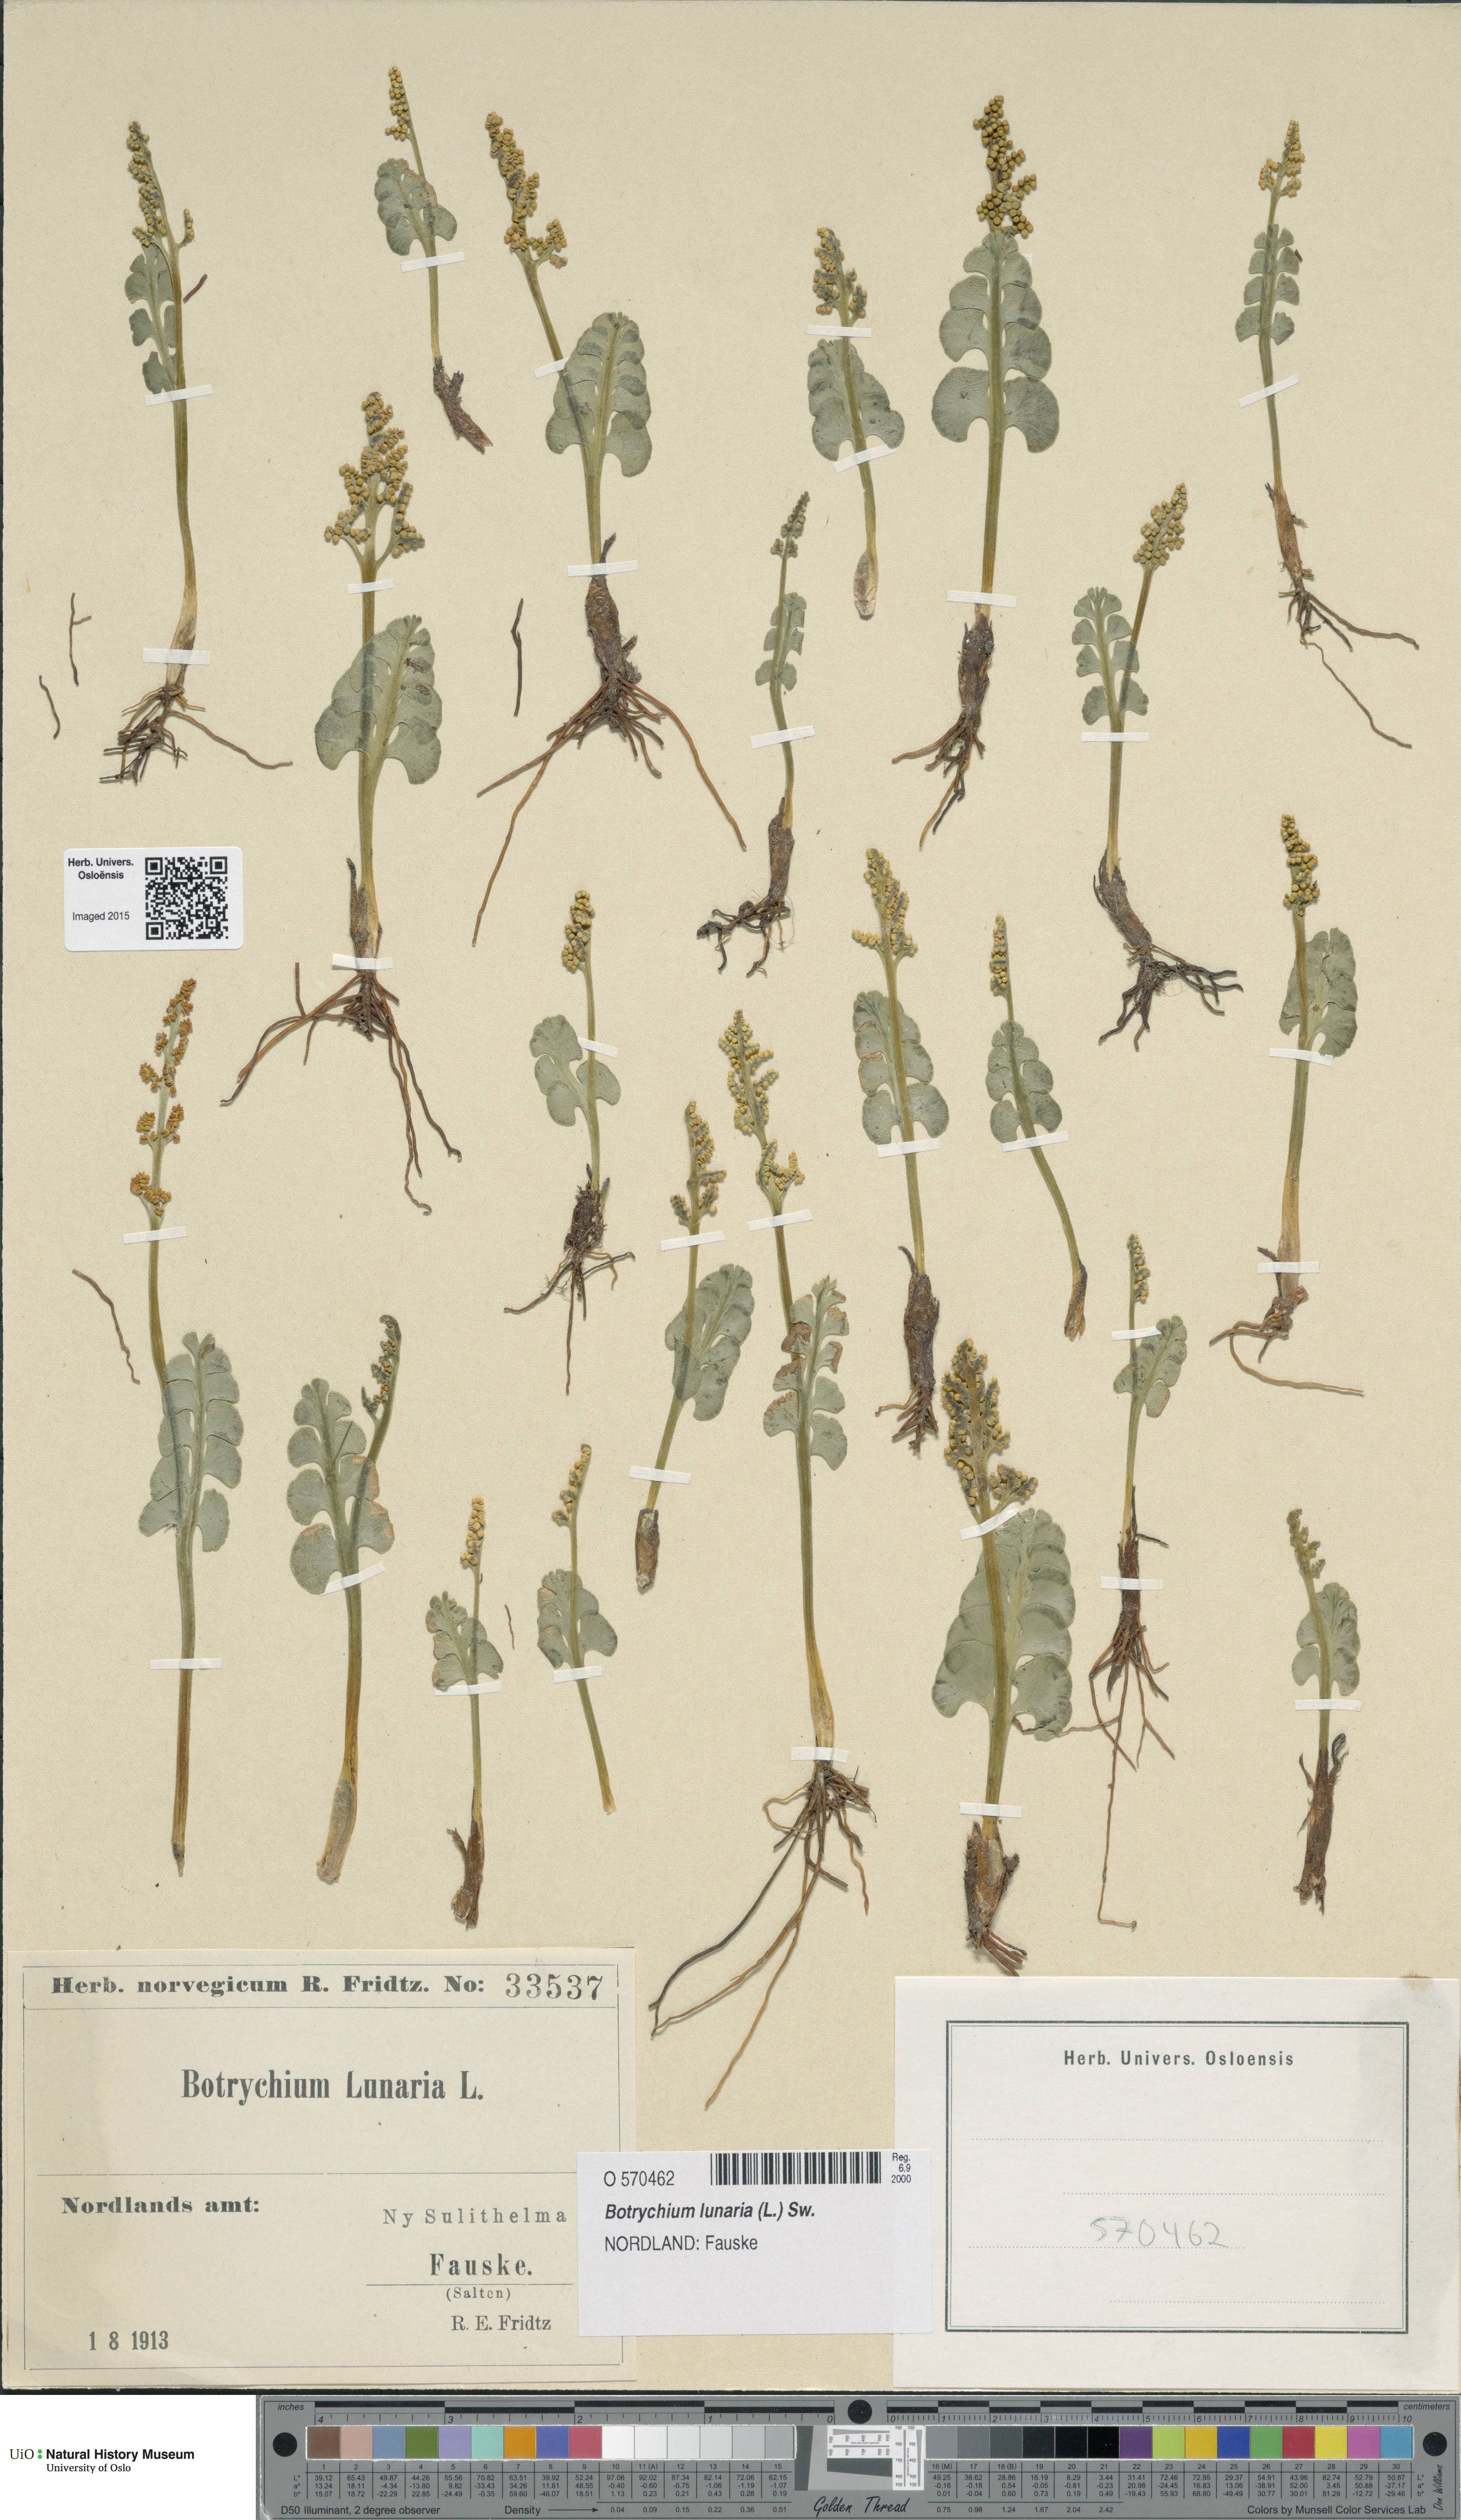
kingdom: Plantae
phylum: Tracheophyta
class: Polypodiopsida
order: Ophioglossales
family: Ophioglossaceae
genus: Botrychium
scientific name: Botrychium lunaria
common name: Moonwort
